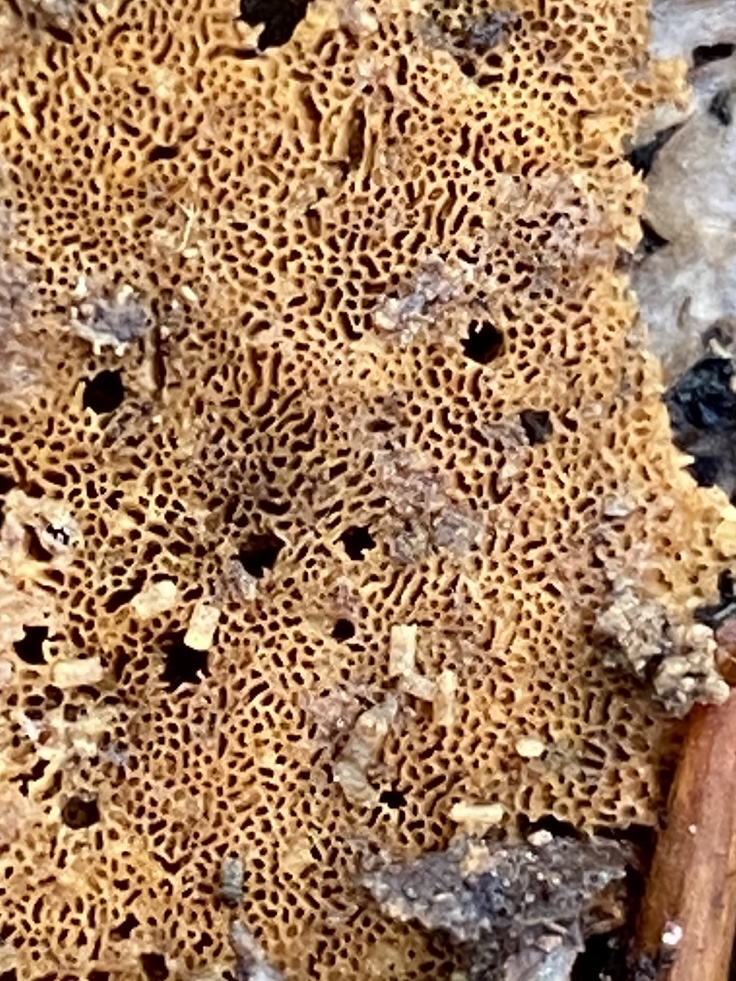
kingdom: Fungi
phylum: Basidiomycota
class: Agaricomycetes
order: Polyporales
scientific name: Polyporales
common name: poresvampordenen
